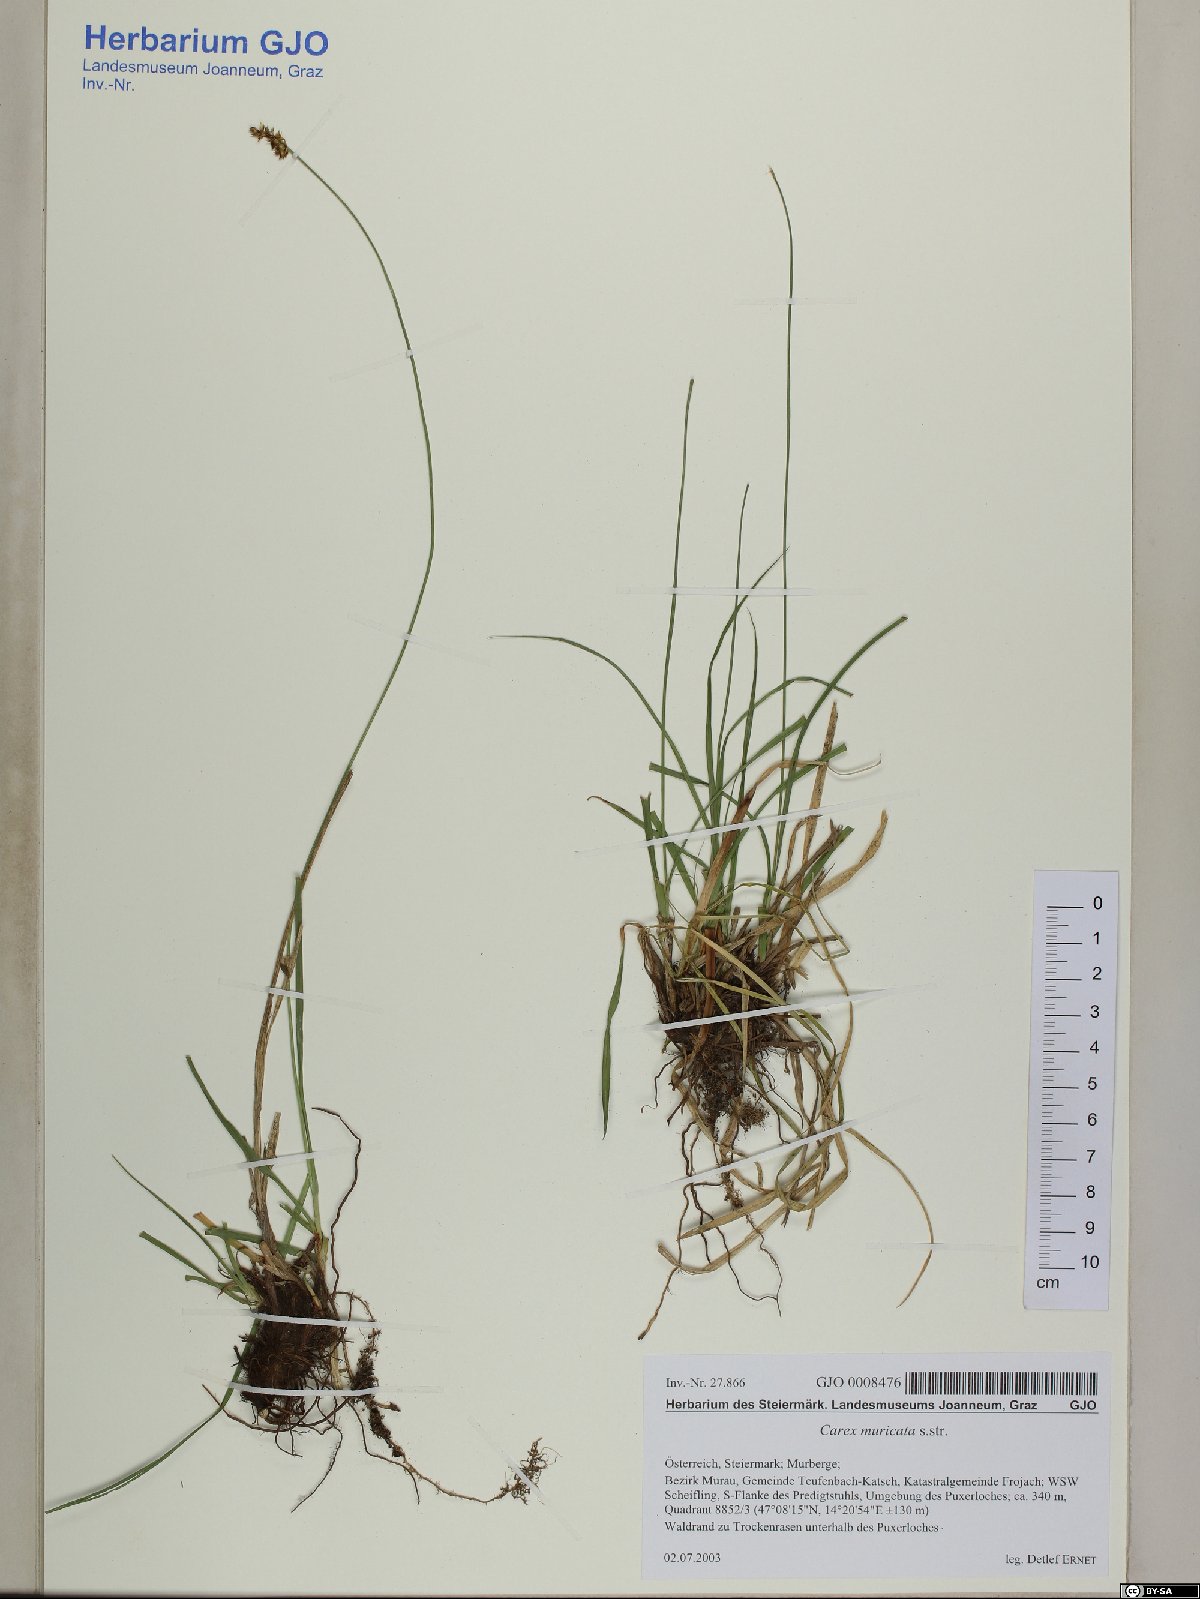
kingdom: Plantae
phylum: Tracheophyta
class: Liliopsida
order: Poales
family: Cyperaceae
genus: Carex
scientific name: Carex muricata
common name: Rough sedge
